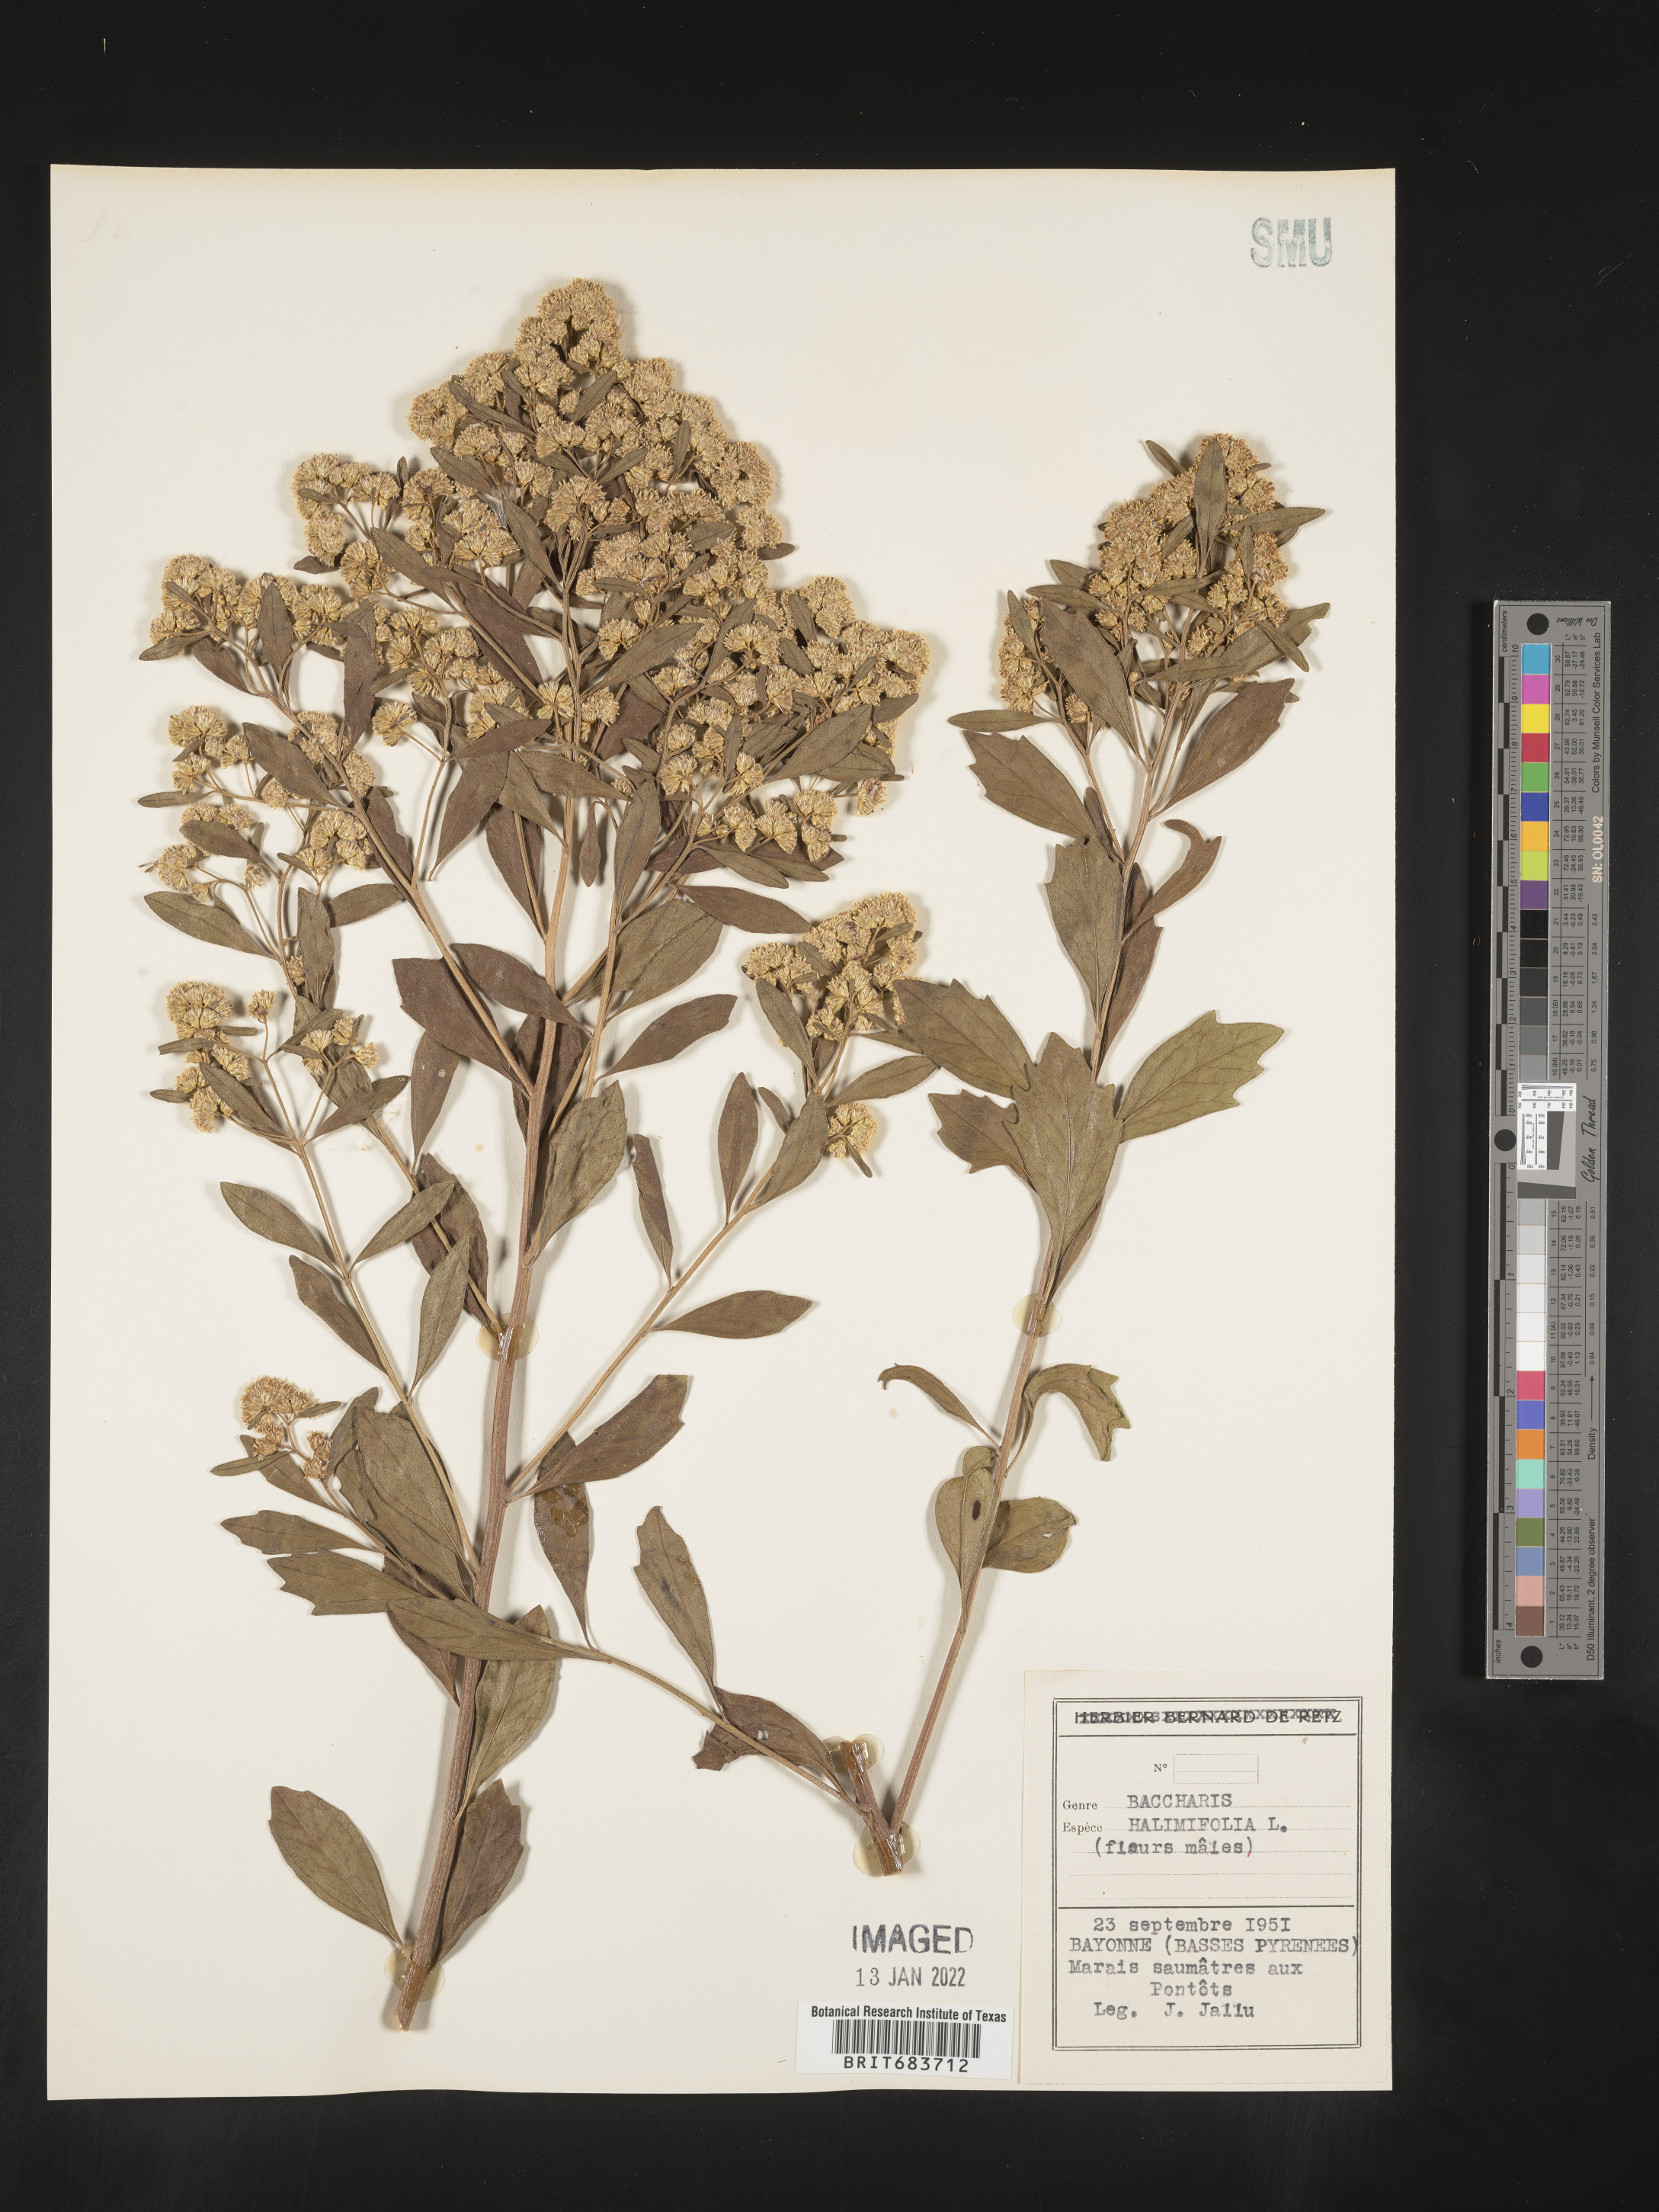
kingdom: Plantae
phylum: Tracheophyta
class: Magnoliopsida
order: Asterales
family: Asteraceae
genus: Baccharis
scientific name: Baccharis
